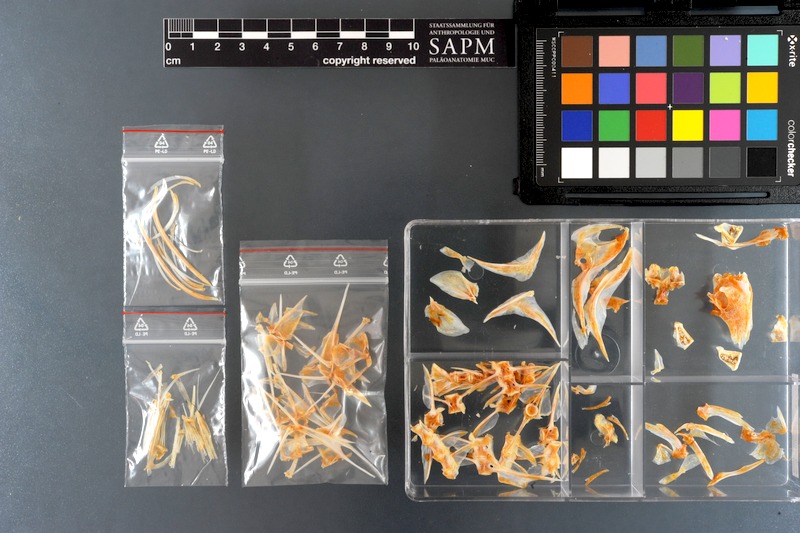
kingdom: Animalia
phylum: Chordata
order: Perciformes
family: Siganidae
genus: Siganus
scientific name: Siganus canaliculatus
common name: White-spotted spinefoot
